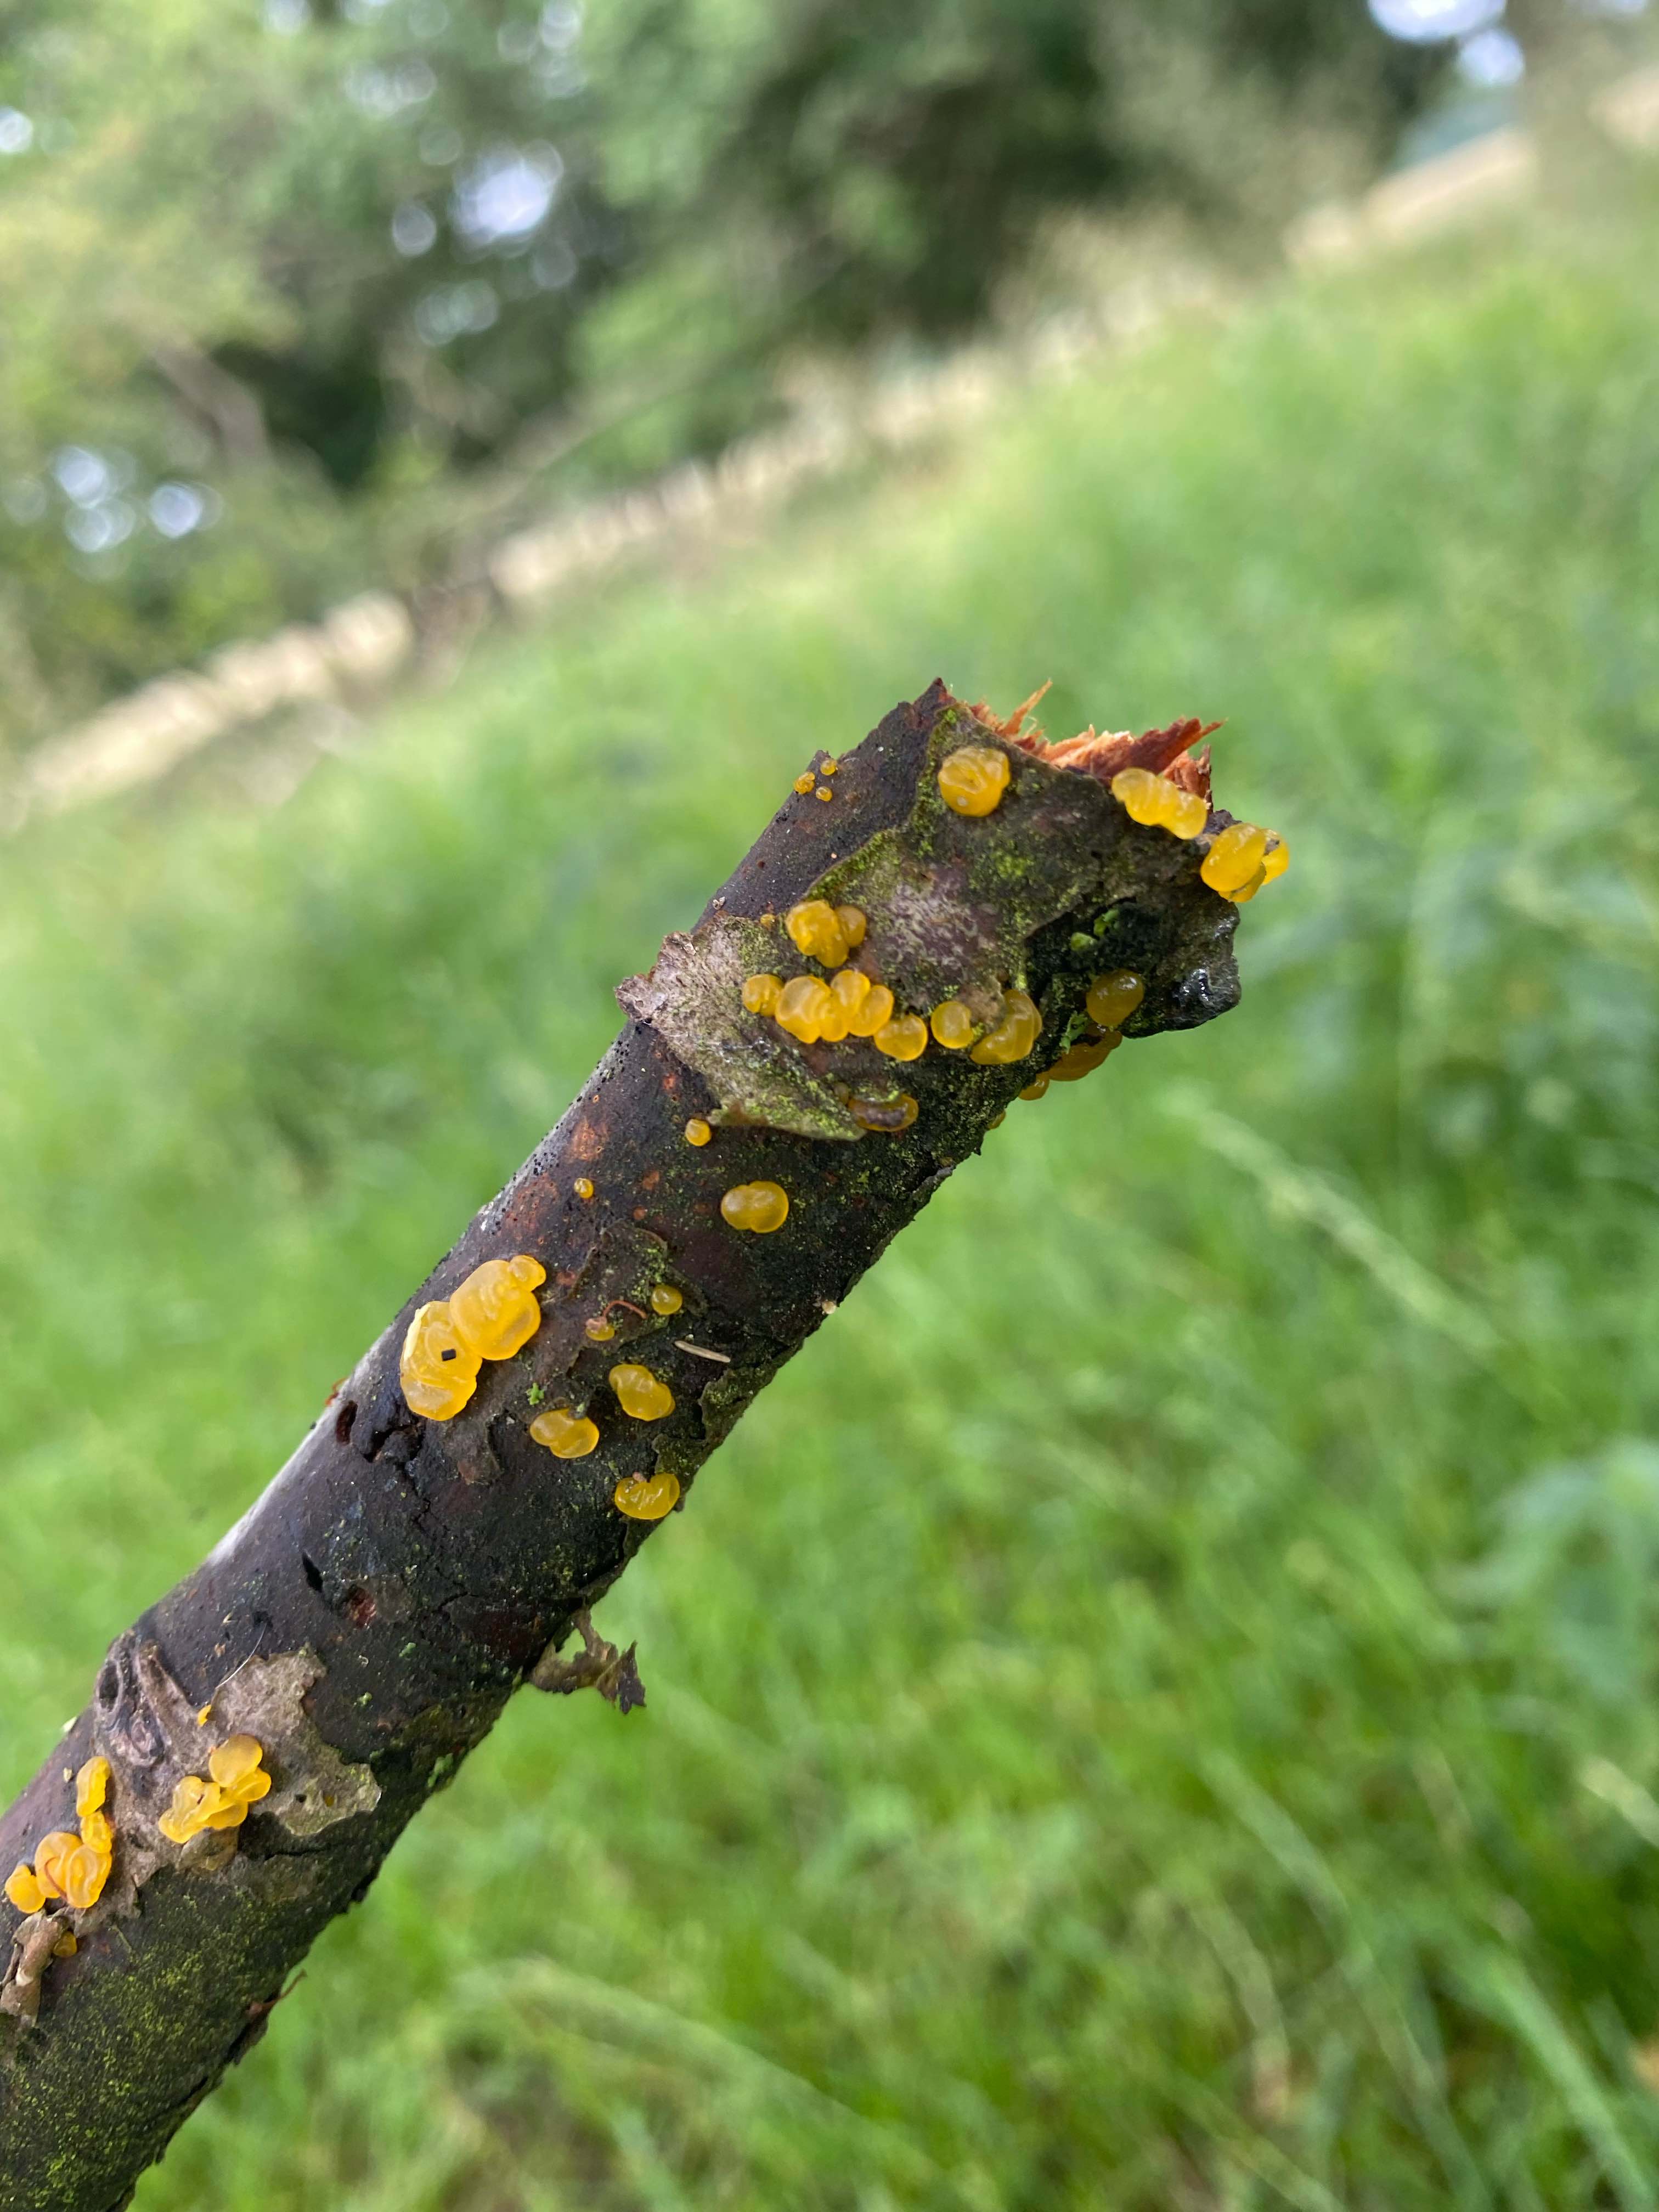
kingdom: Fungi
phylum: Basidiomycota
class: Dacrymycetes
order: Dacrymycetales
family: Dacrymycetaceae
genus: Dacrymyces
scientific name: Dacrymyces lacrymalis
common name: rynket tåresvamp
